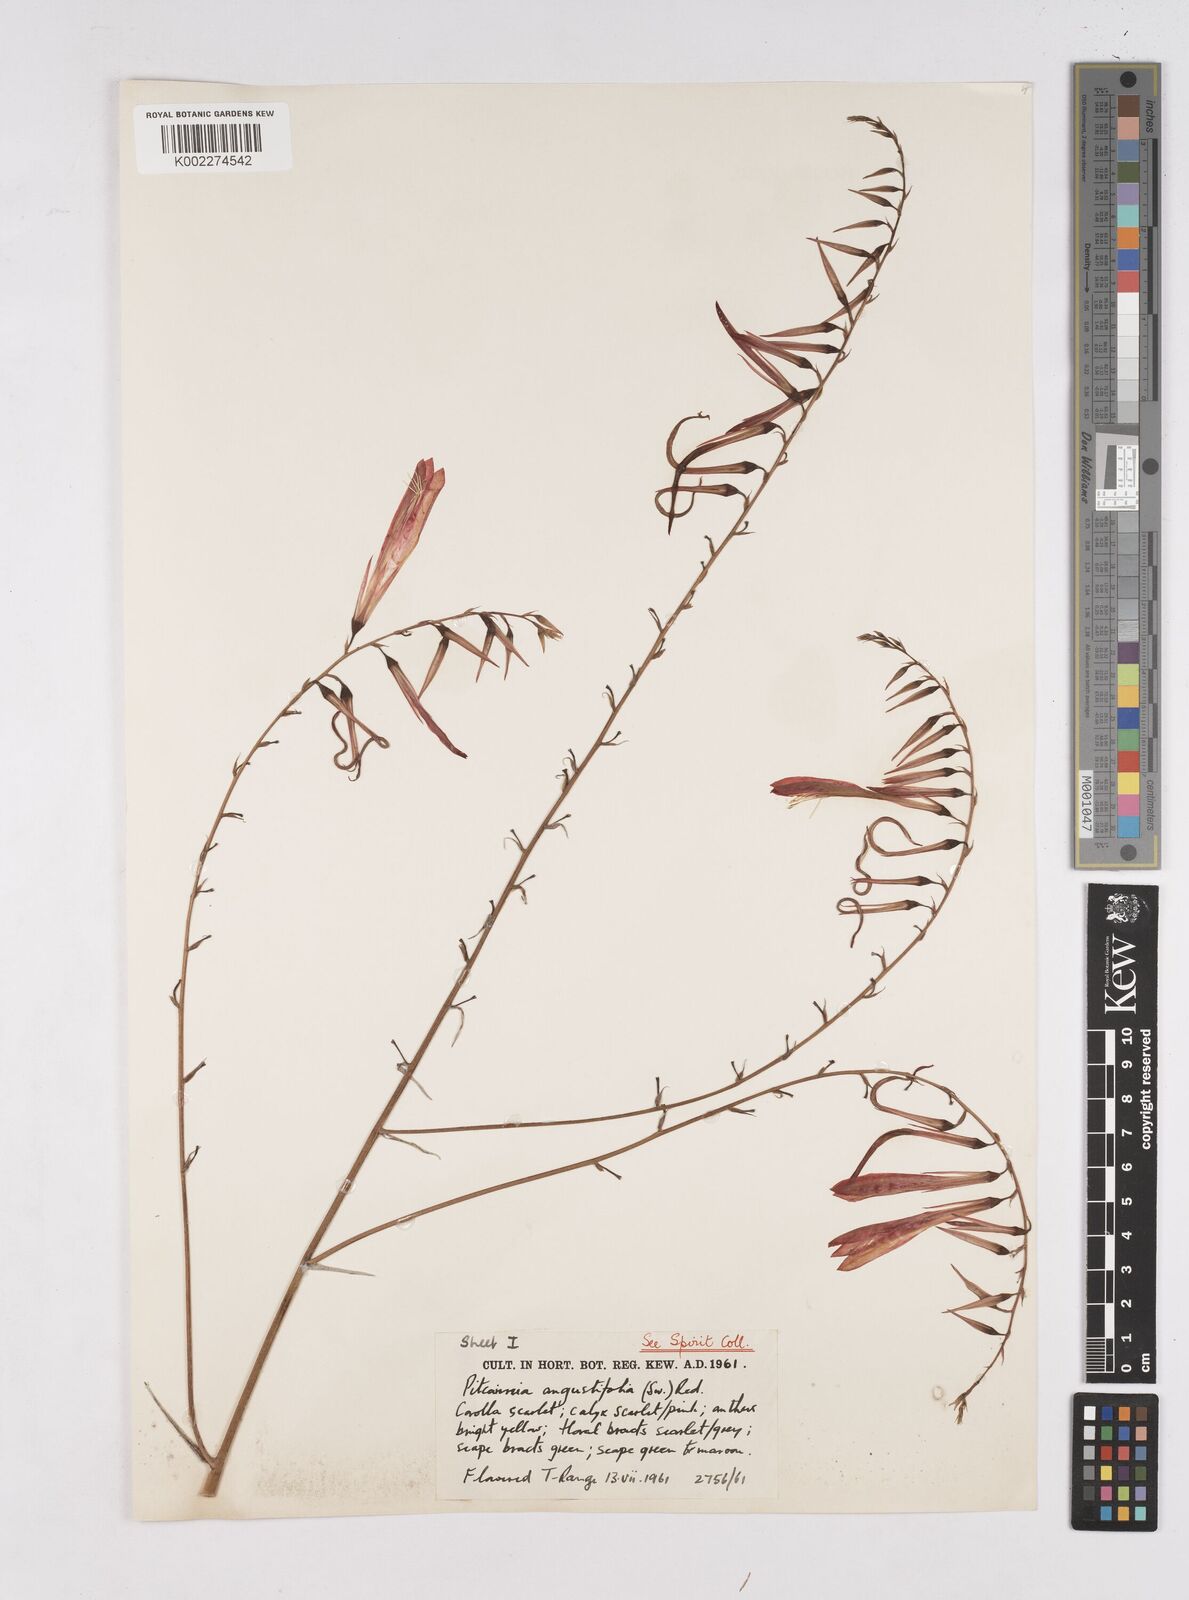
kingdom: Plantae
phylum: Tracheophyta
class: Liliopsida
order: Poales
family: Bromeliaceae
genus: Pitcairnia
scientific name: Pitcairnia angustifolia
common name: Clapper
